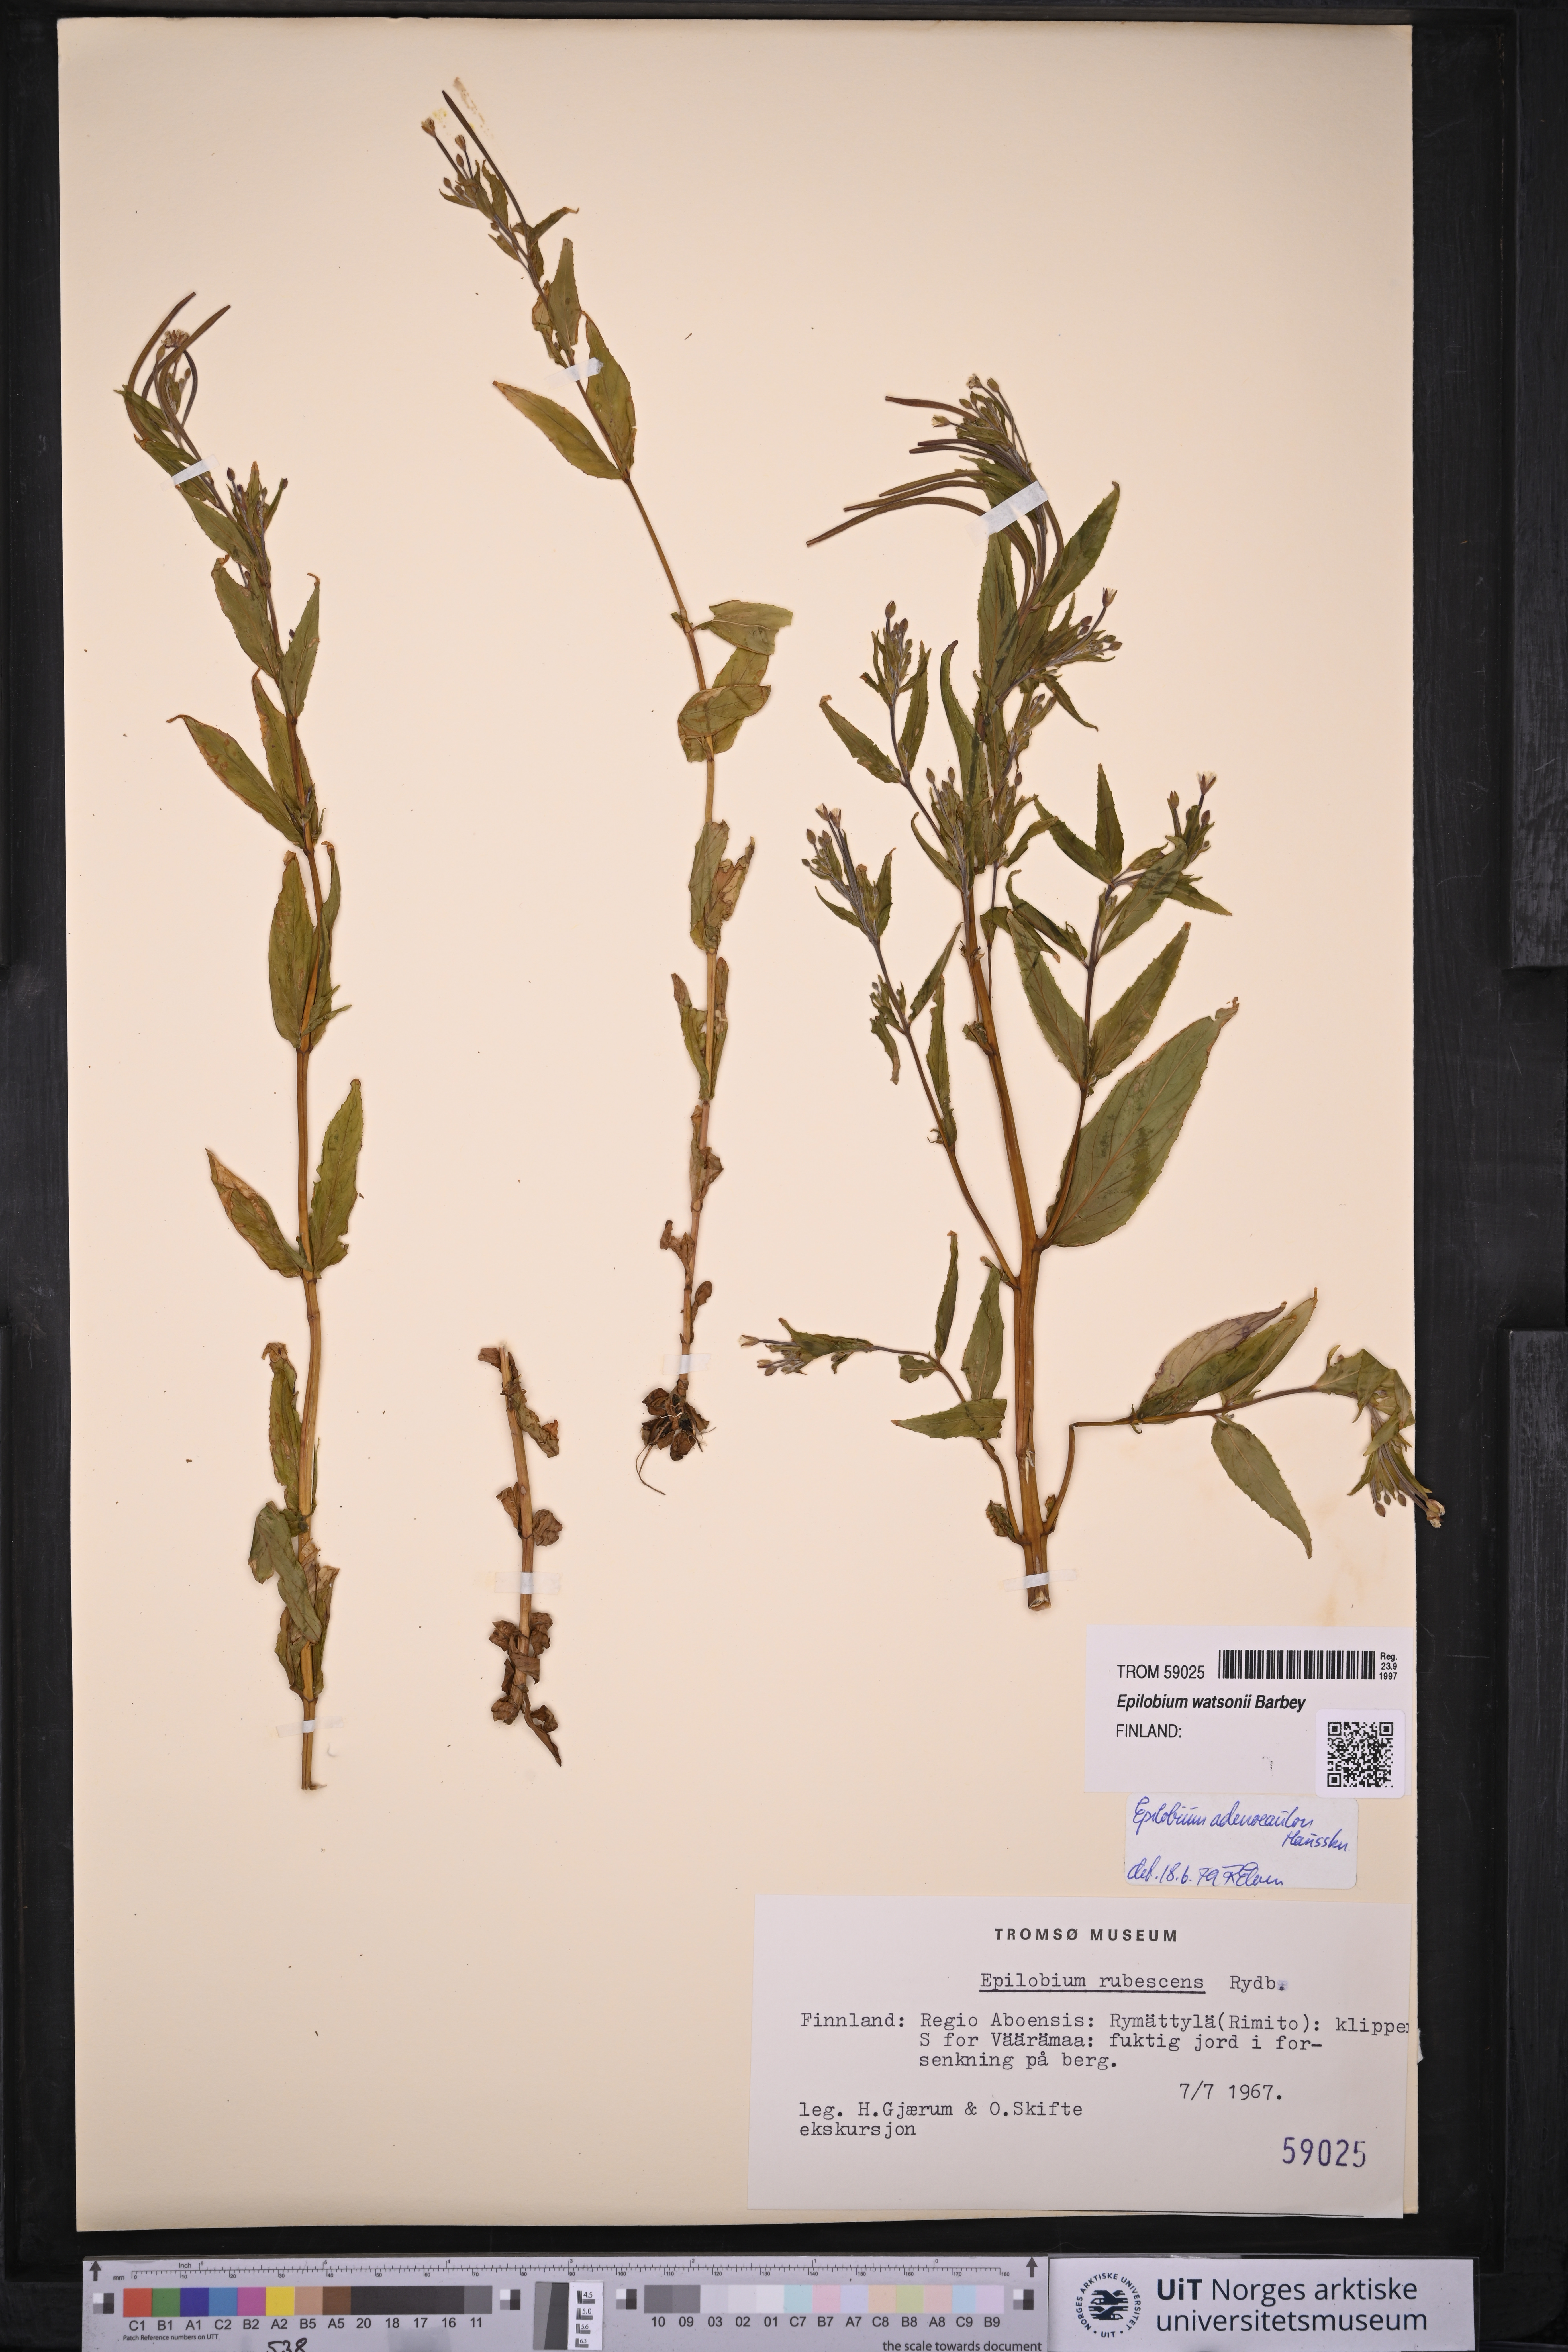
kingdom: Plantae
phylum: Tracheophyta
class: Magnoliopsida
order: Myrtales
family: Onagraceae
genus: Epilobium
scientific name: Epilobium ciliatum
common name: American willowherb
